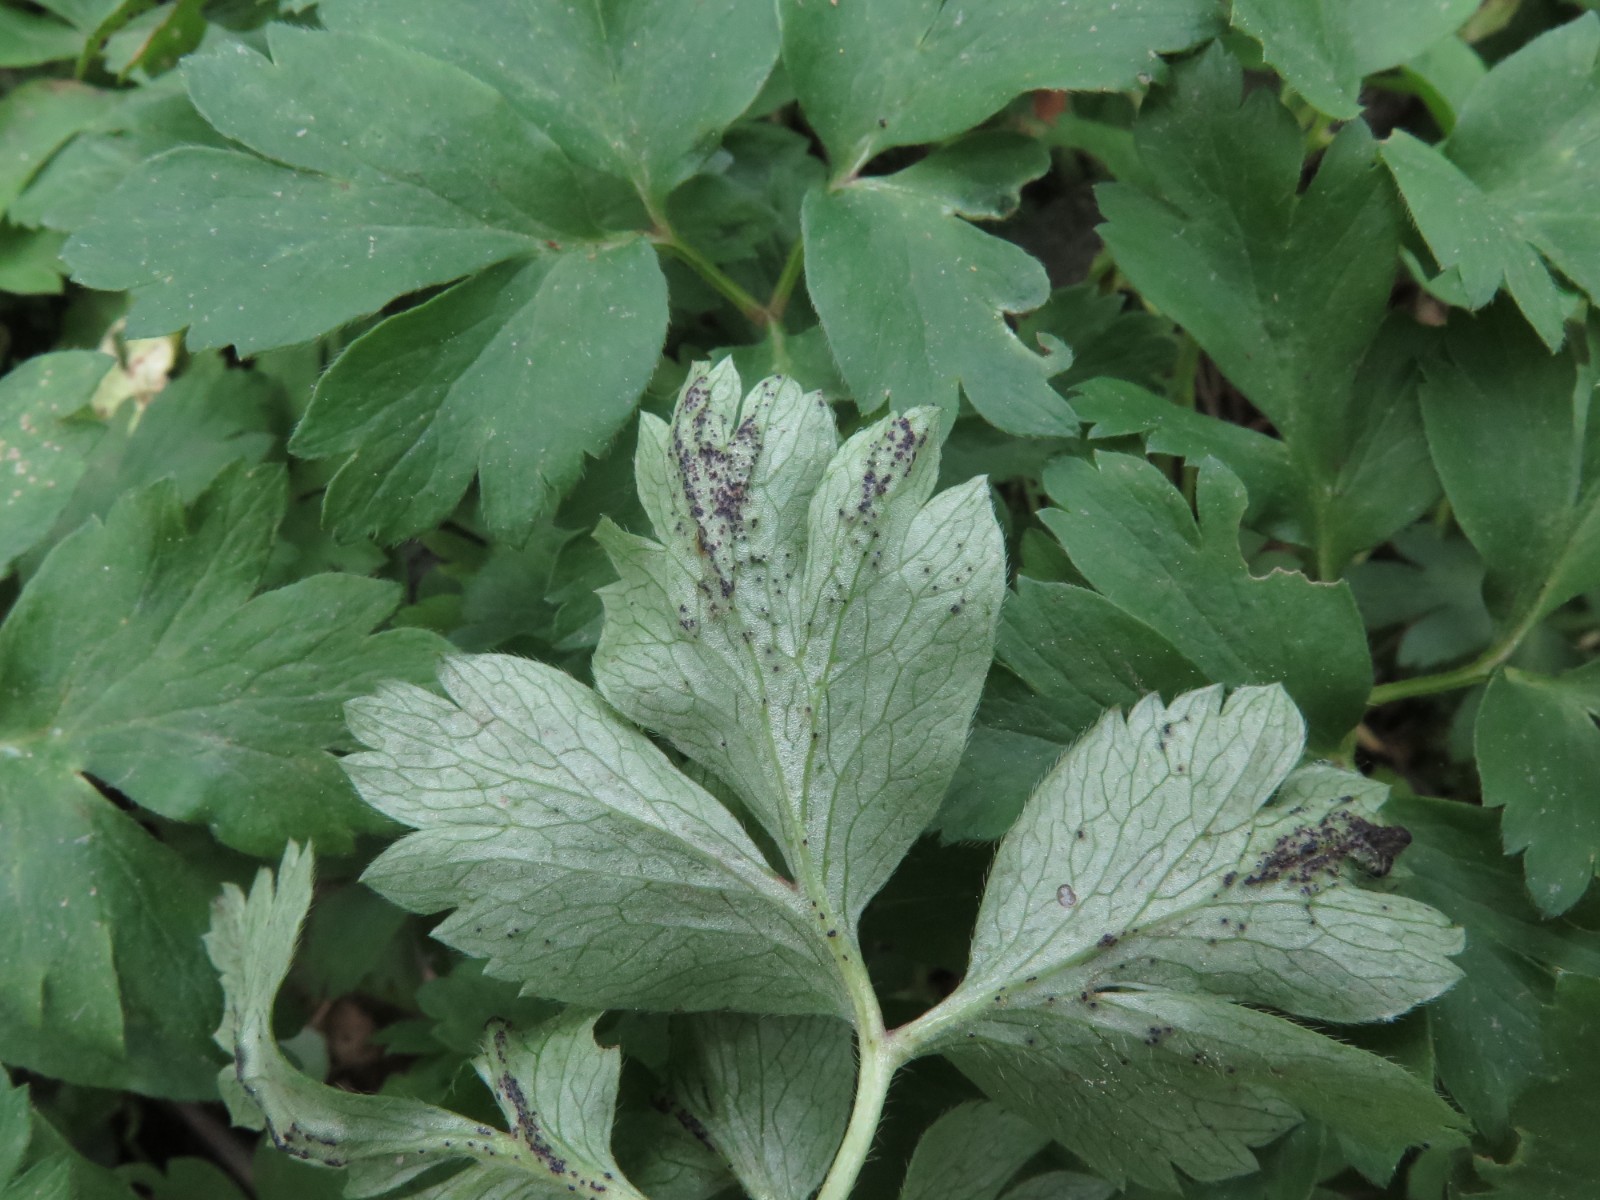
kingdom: Fungi
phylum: Chytridiomycota
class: Chytridiomycetes
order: Chytridiales
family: Synchytriaceae
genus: Synchytrium
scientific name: Synchytrium anemones
